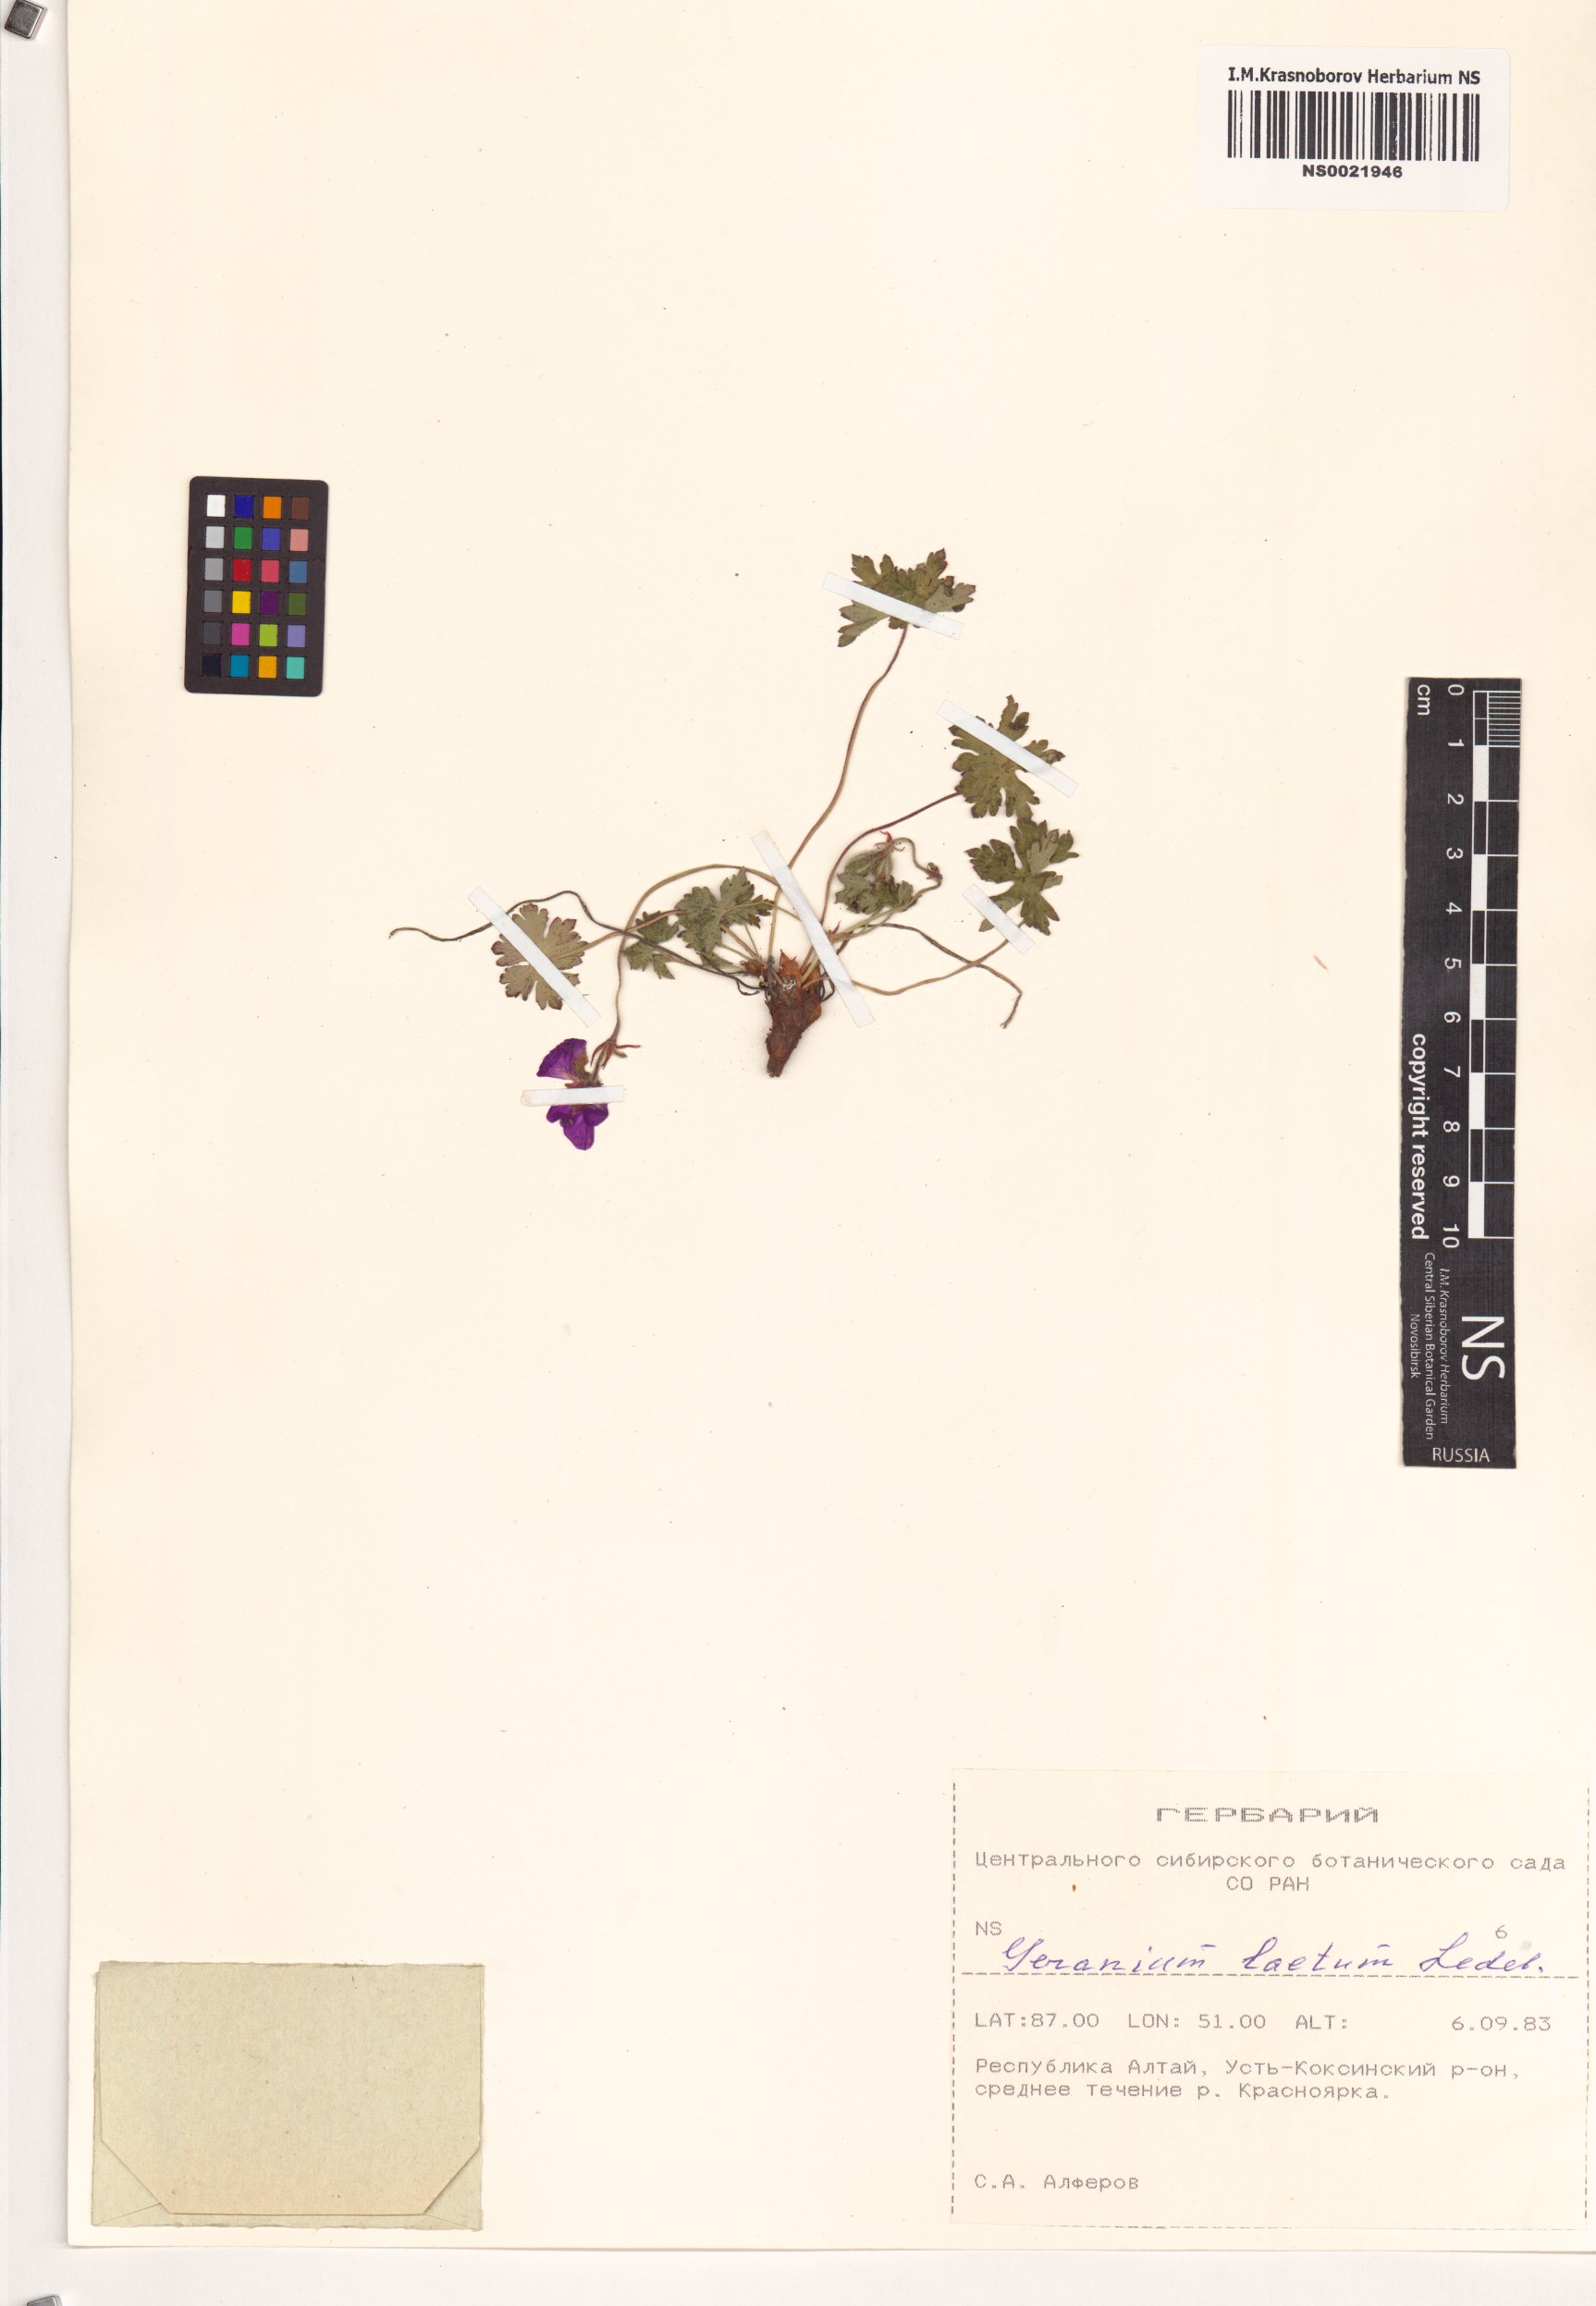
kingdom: Plantae
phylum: Tracheophyta
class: Magnoliopsida
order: Geraniales
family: Geraniaceae
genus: Geranium
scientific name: Geranium pseudosibiricum
